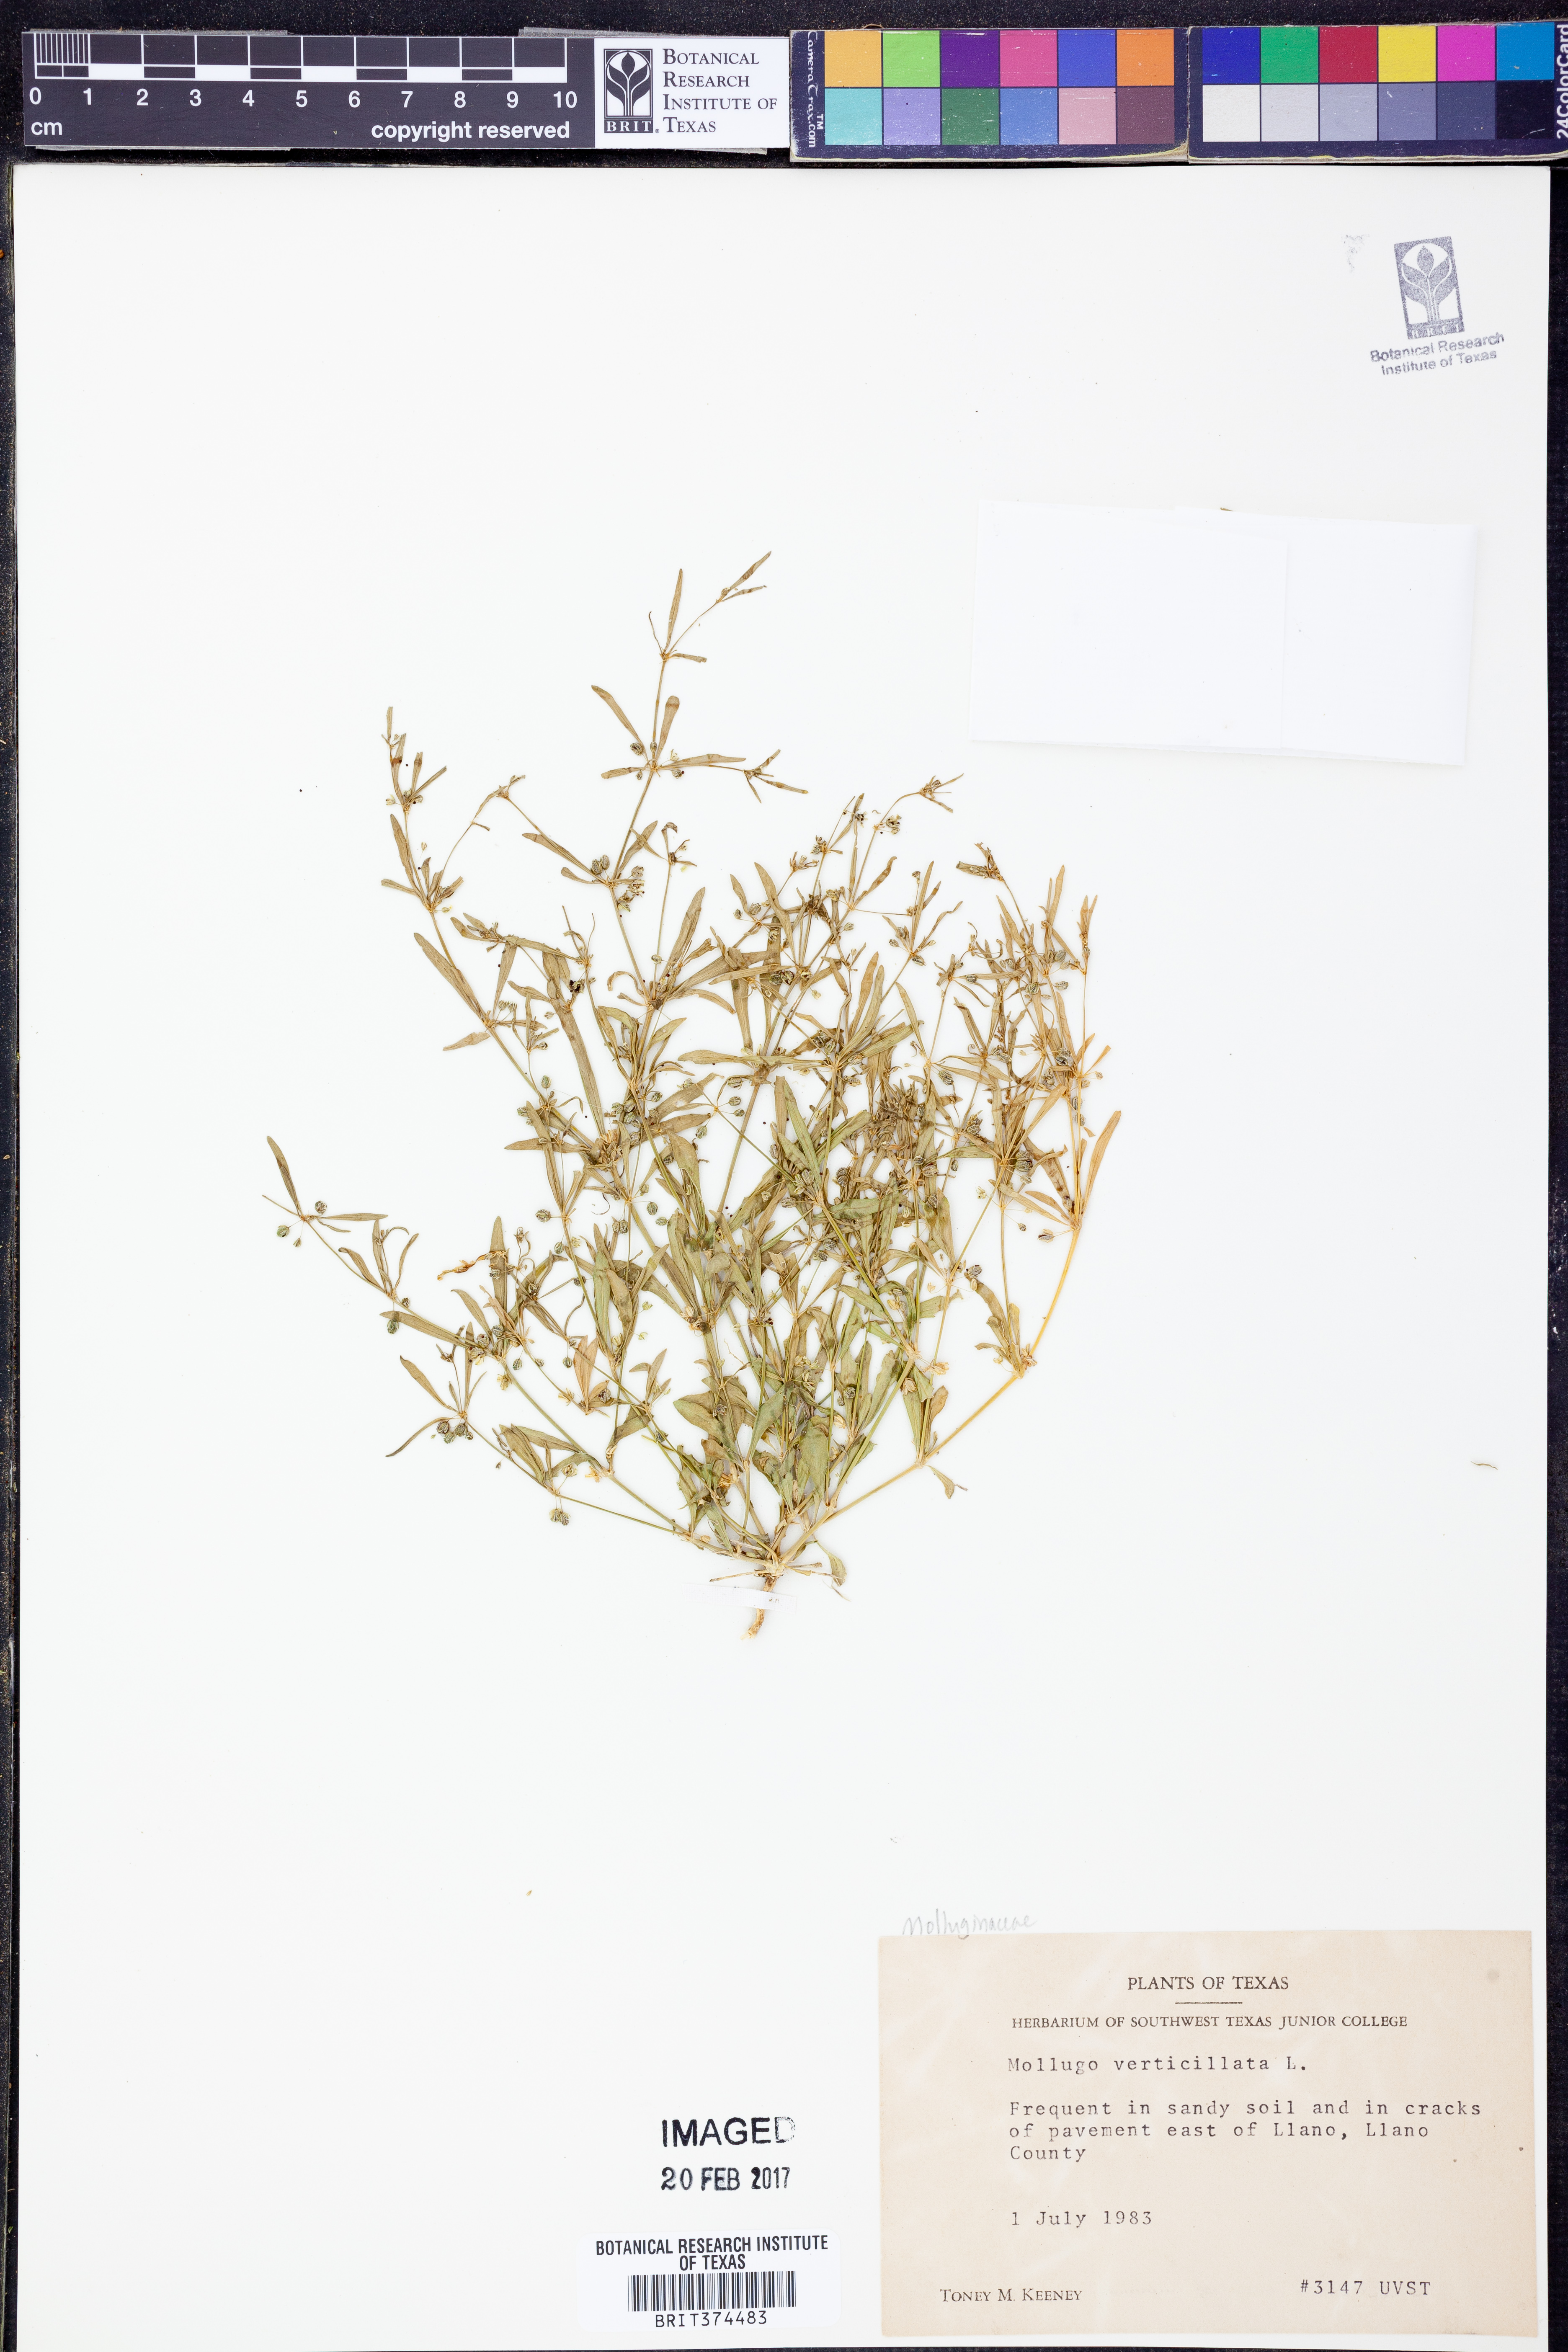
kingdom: Plantae
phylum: Tracheophyta
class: Magnoliopsida
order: Caryophyllales
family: Molluginaceae
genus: Mollugo
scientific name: Mollugo verticillata
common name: Green carpetweed
